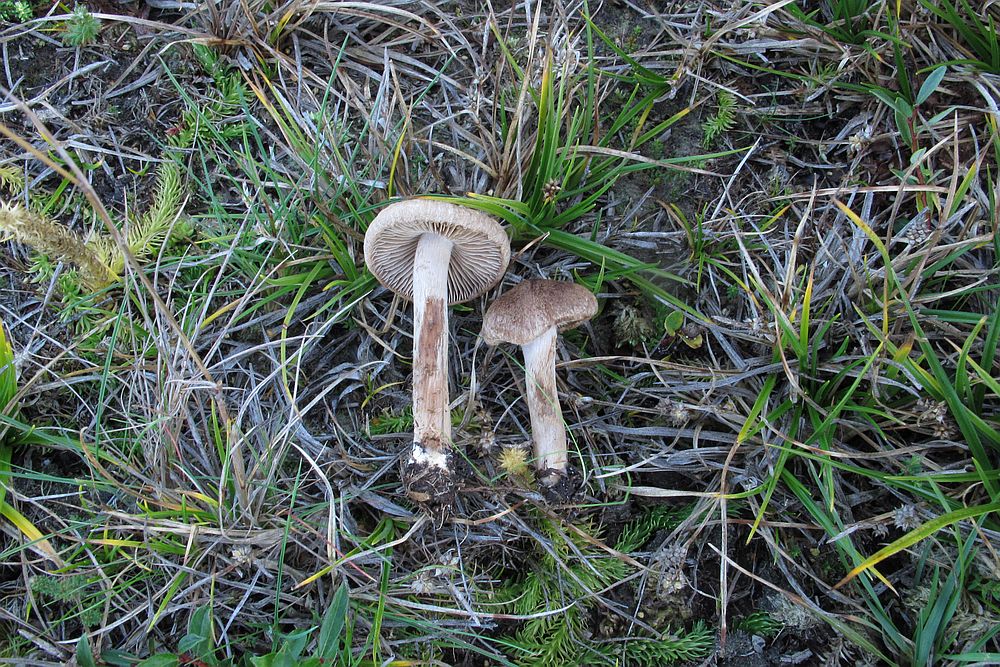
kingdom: Fungi
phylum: Basidiomycota
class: Agaricomycetes
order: Agaricales
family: Inocybaceae
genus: Inocybe
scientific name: Inocybe lacera
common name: laset trævlhat
